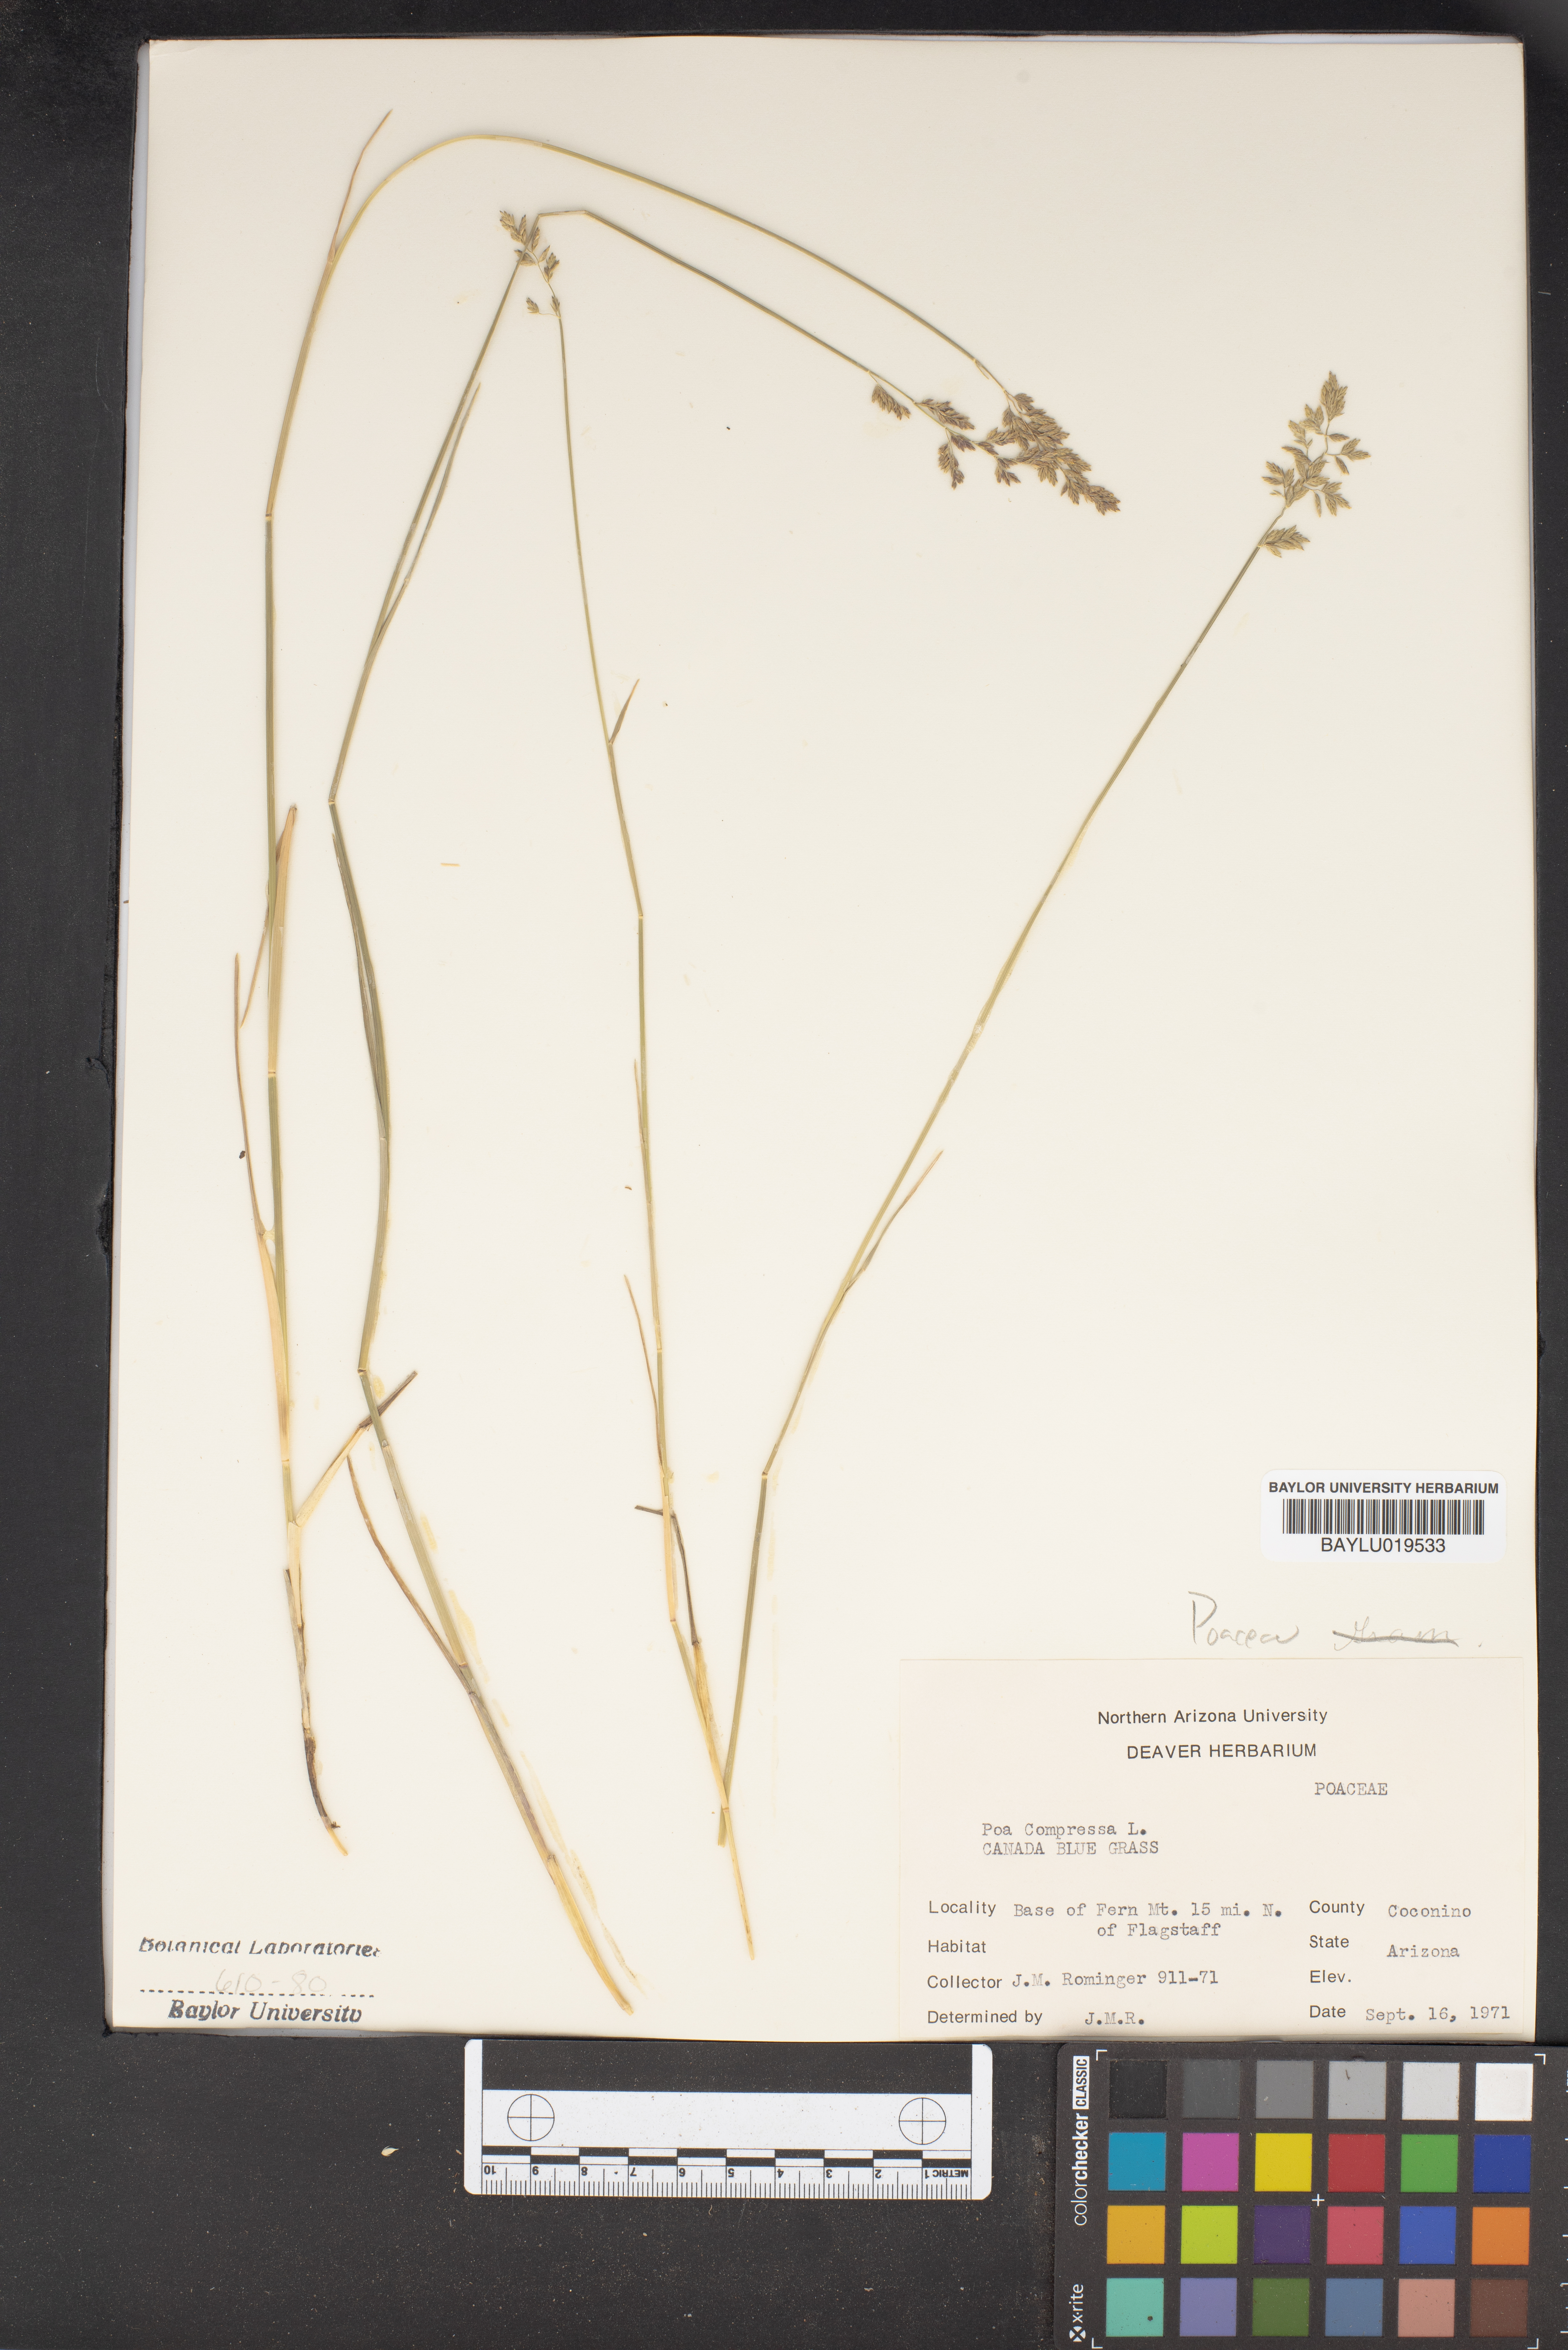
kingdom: Plantae
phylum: Tracheophyta
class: Liliopsida
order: Poales
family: Poaceae
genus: Poa
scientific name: Poa compressa
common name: Canada bluegrass
